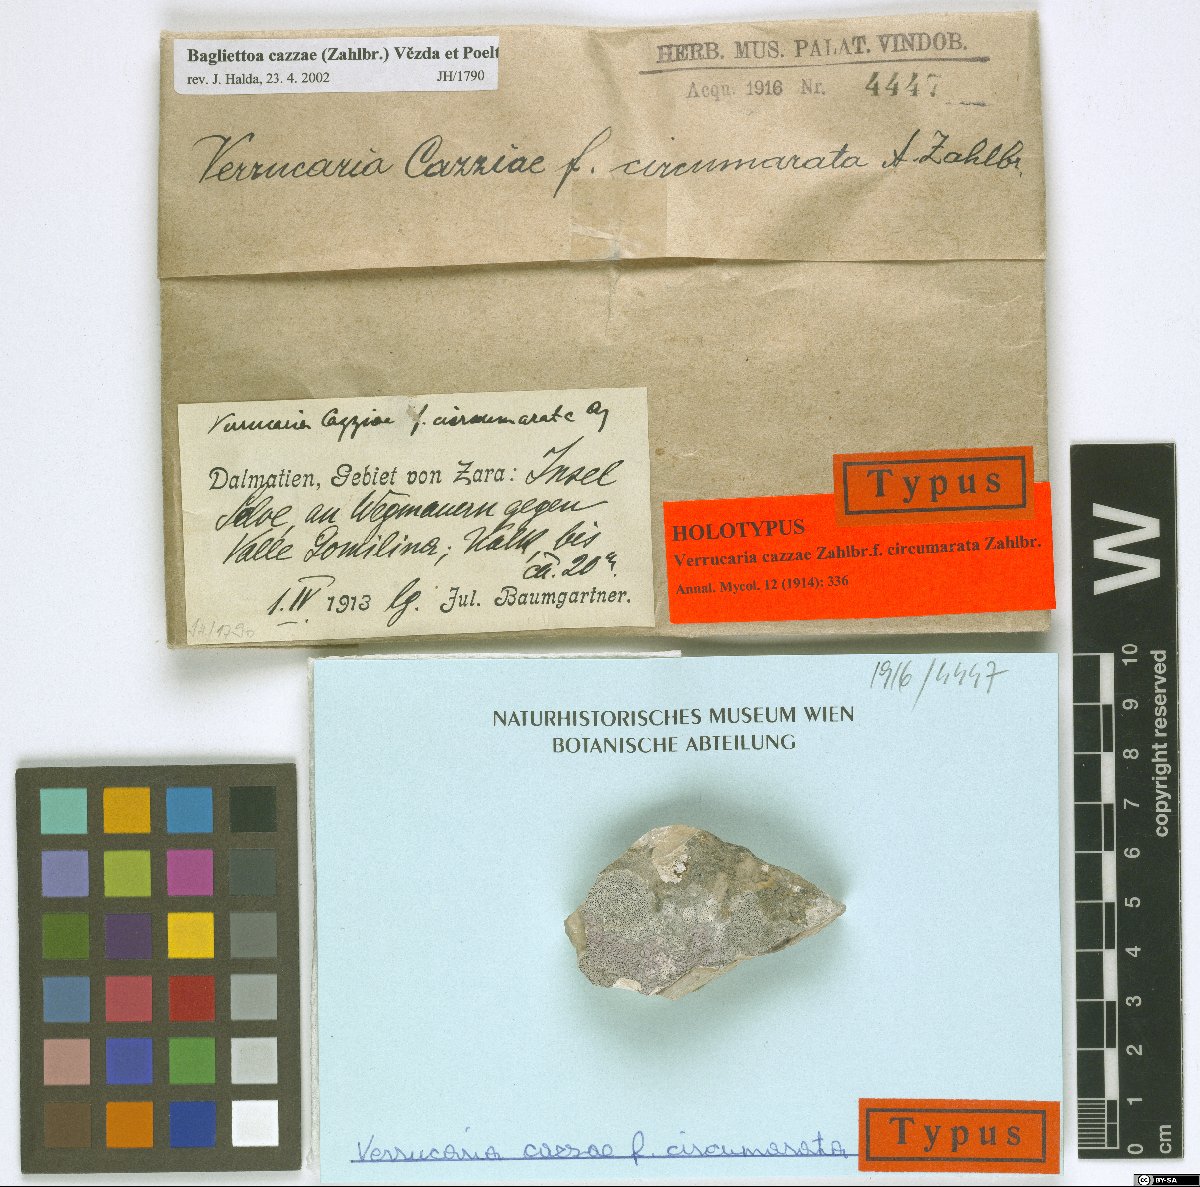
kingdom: Fungi
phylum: Ascomycota
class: Eurotiomycetes
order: Verrucariales
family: Verrucariaceae
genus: Bagliettoa
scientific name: Bagliettoa cazzae
